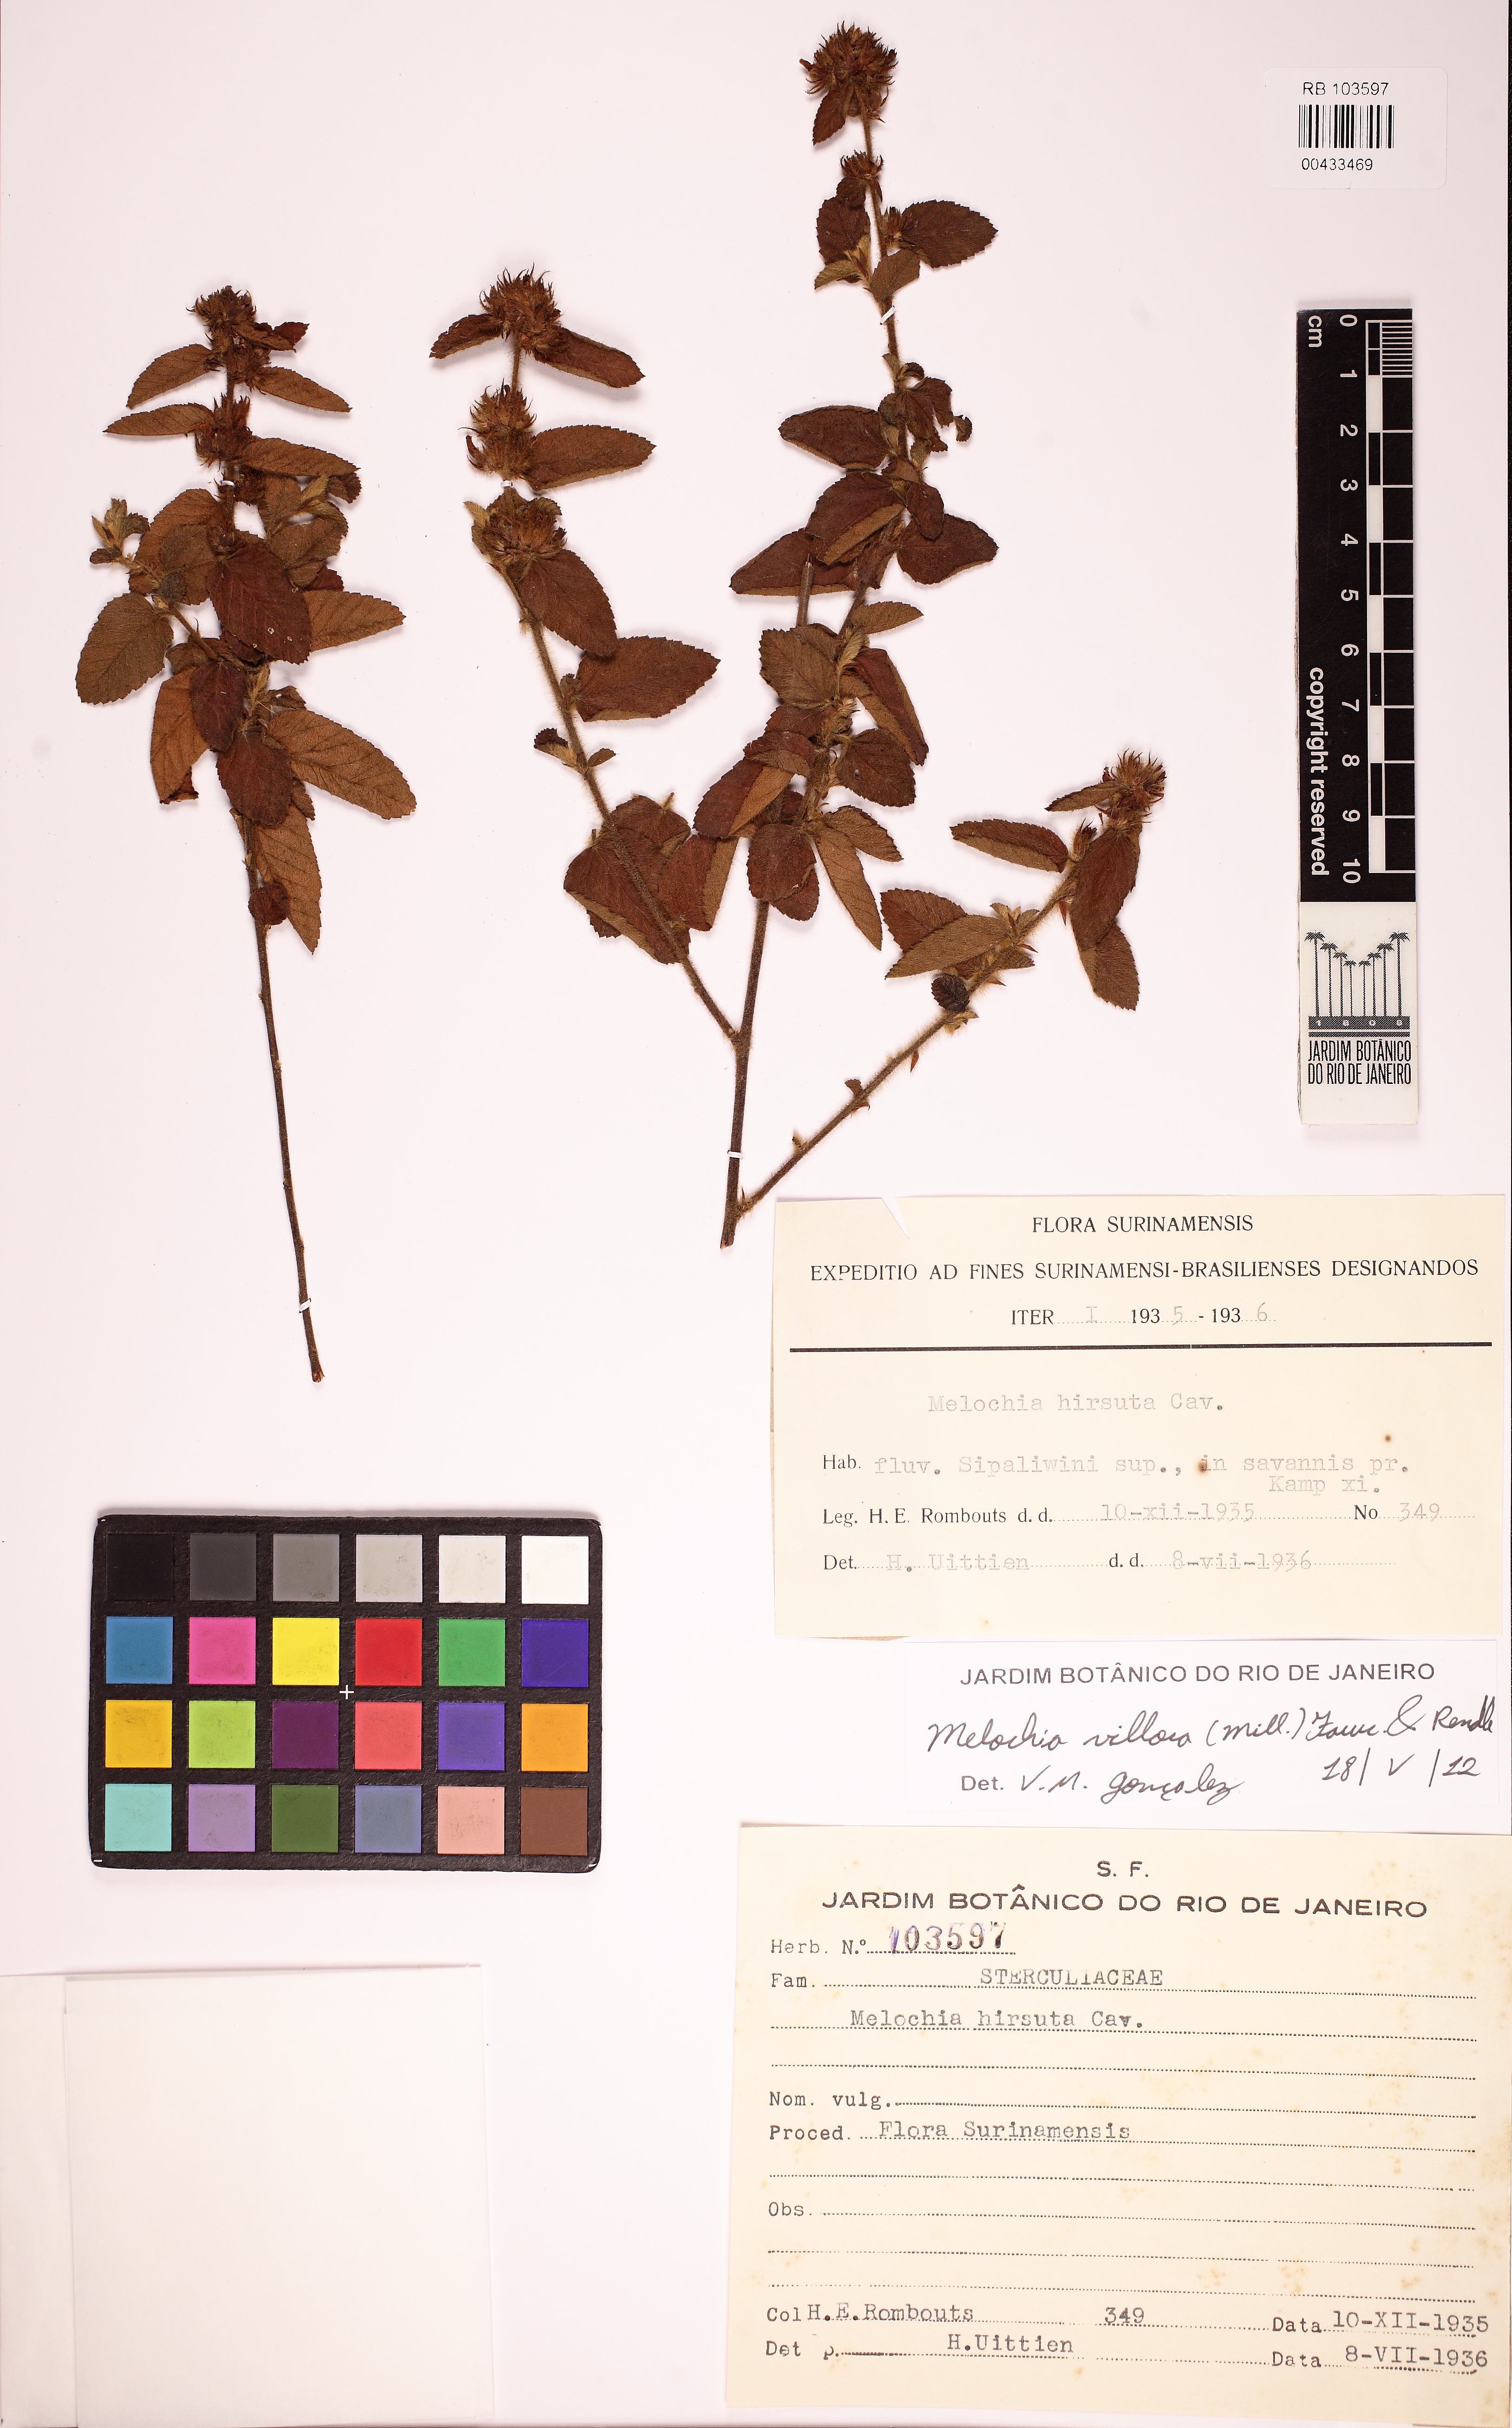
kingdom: Plantae
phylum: Tracheophyta
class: Magnoliopsida
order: Malvales
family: Malvaceae
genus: Melochia
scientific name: Melochia spicata
